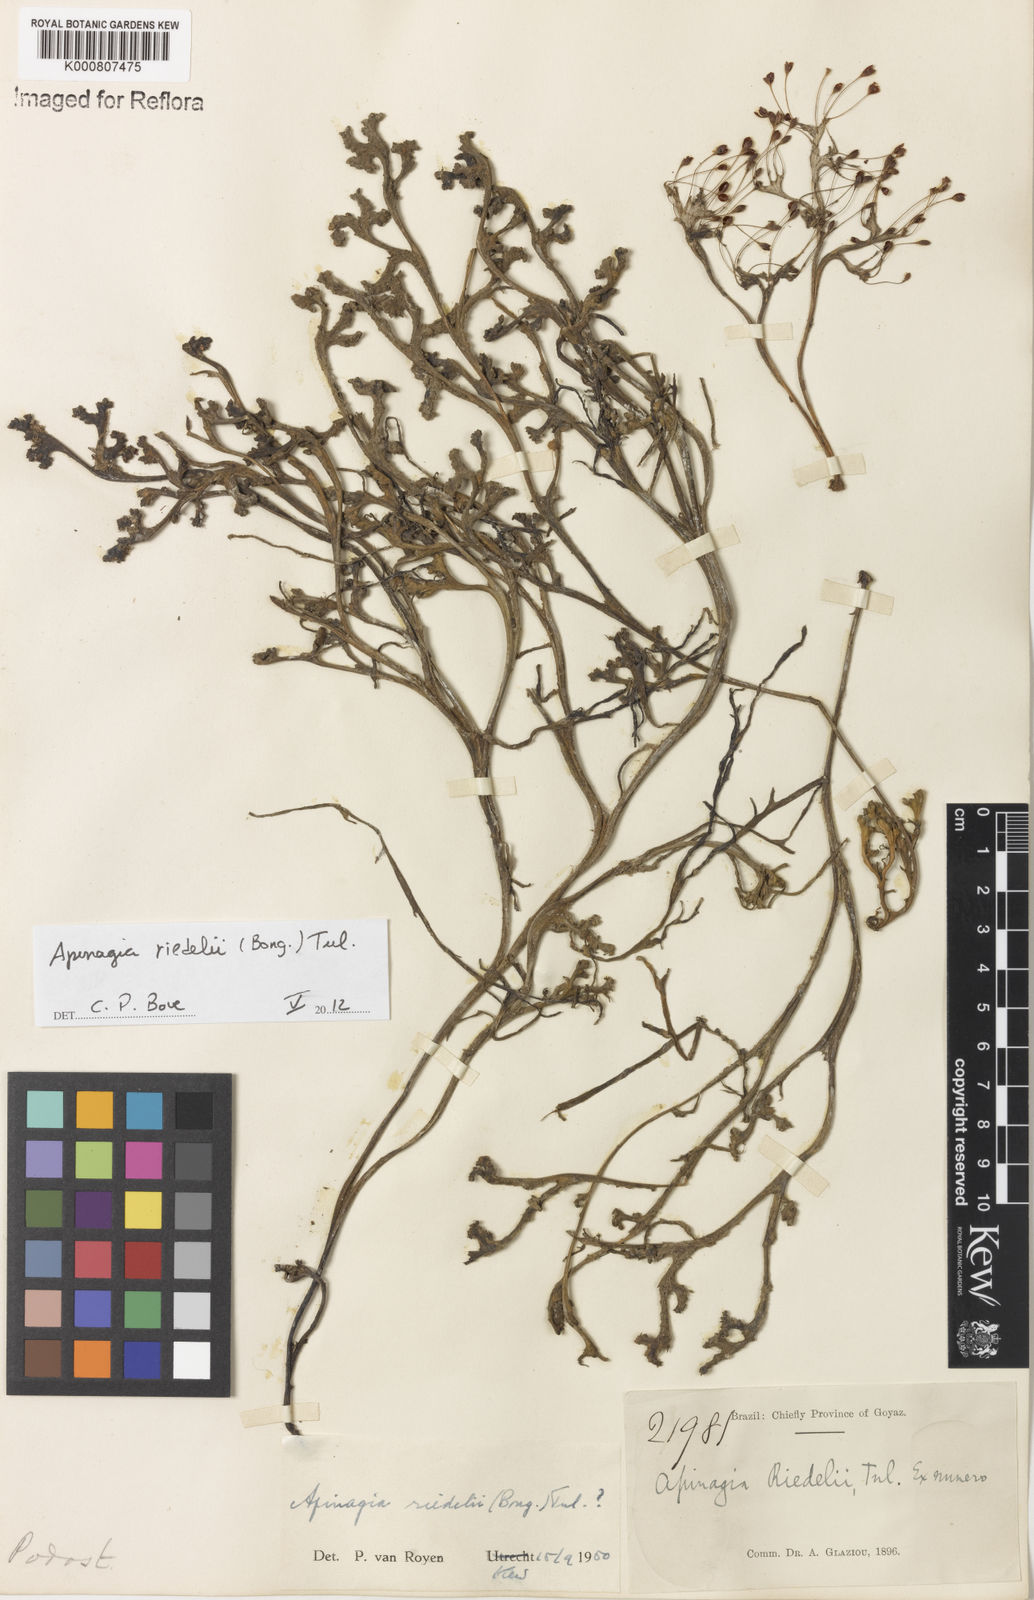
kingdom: Plantae
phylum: Tracheophyta
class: Magnoliopsida
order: Malpighiales
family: Podostemaceae
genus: Apinagia
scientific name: Apinagia riedelii
